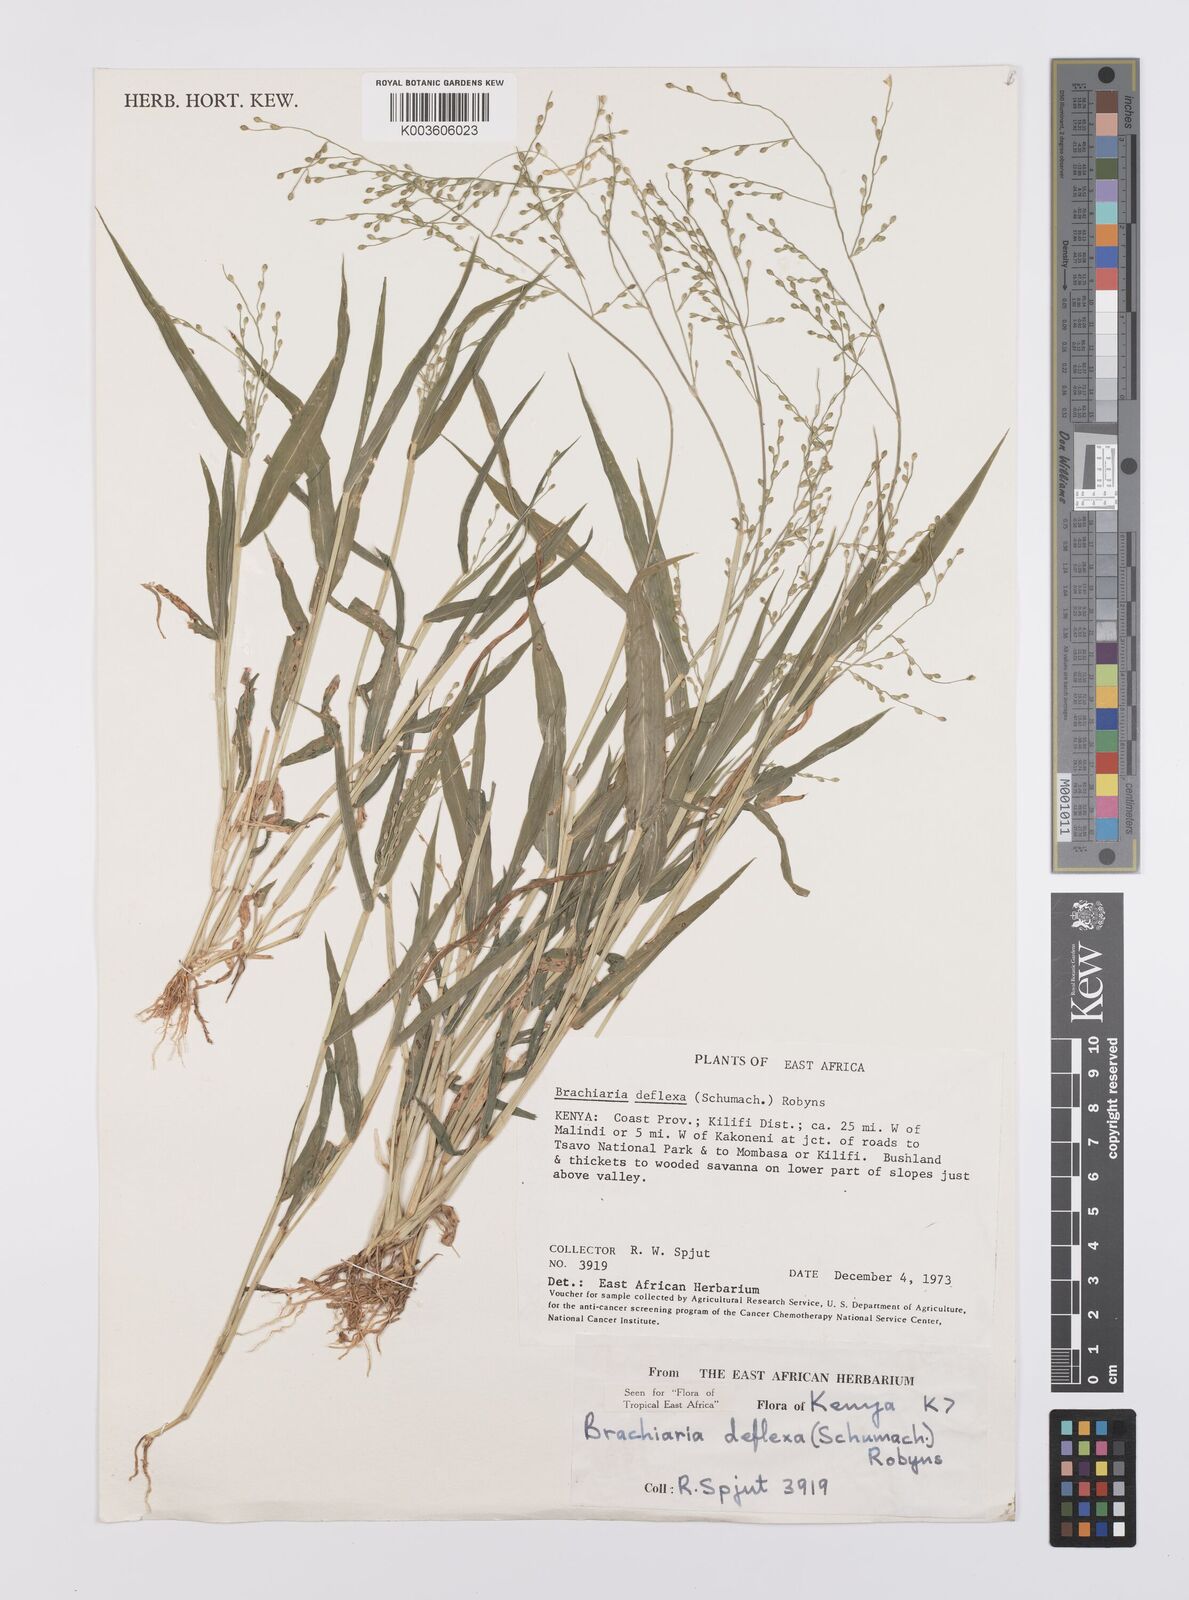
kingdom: Plantae
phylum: Tracheophyta
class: Liliopsida
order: Poales
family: Poaceae
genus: Urochloa
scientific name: Urochloa deflexa
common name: Guinea millet
